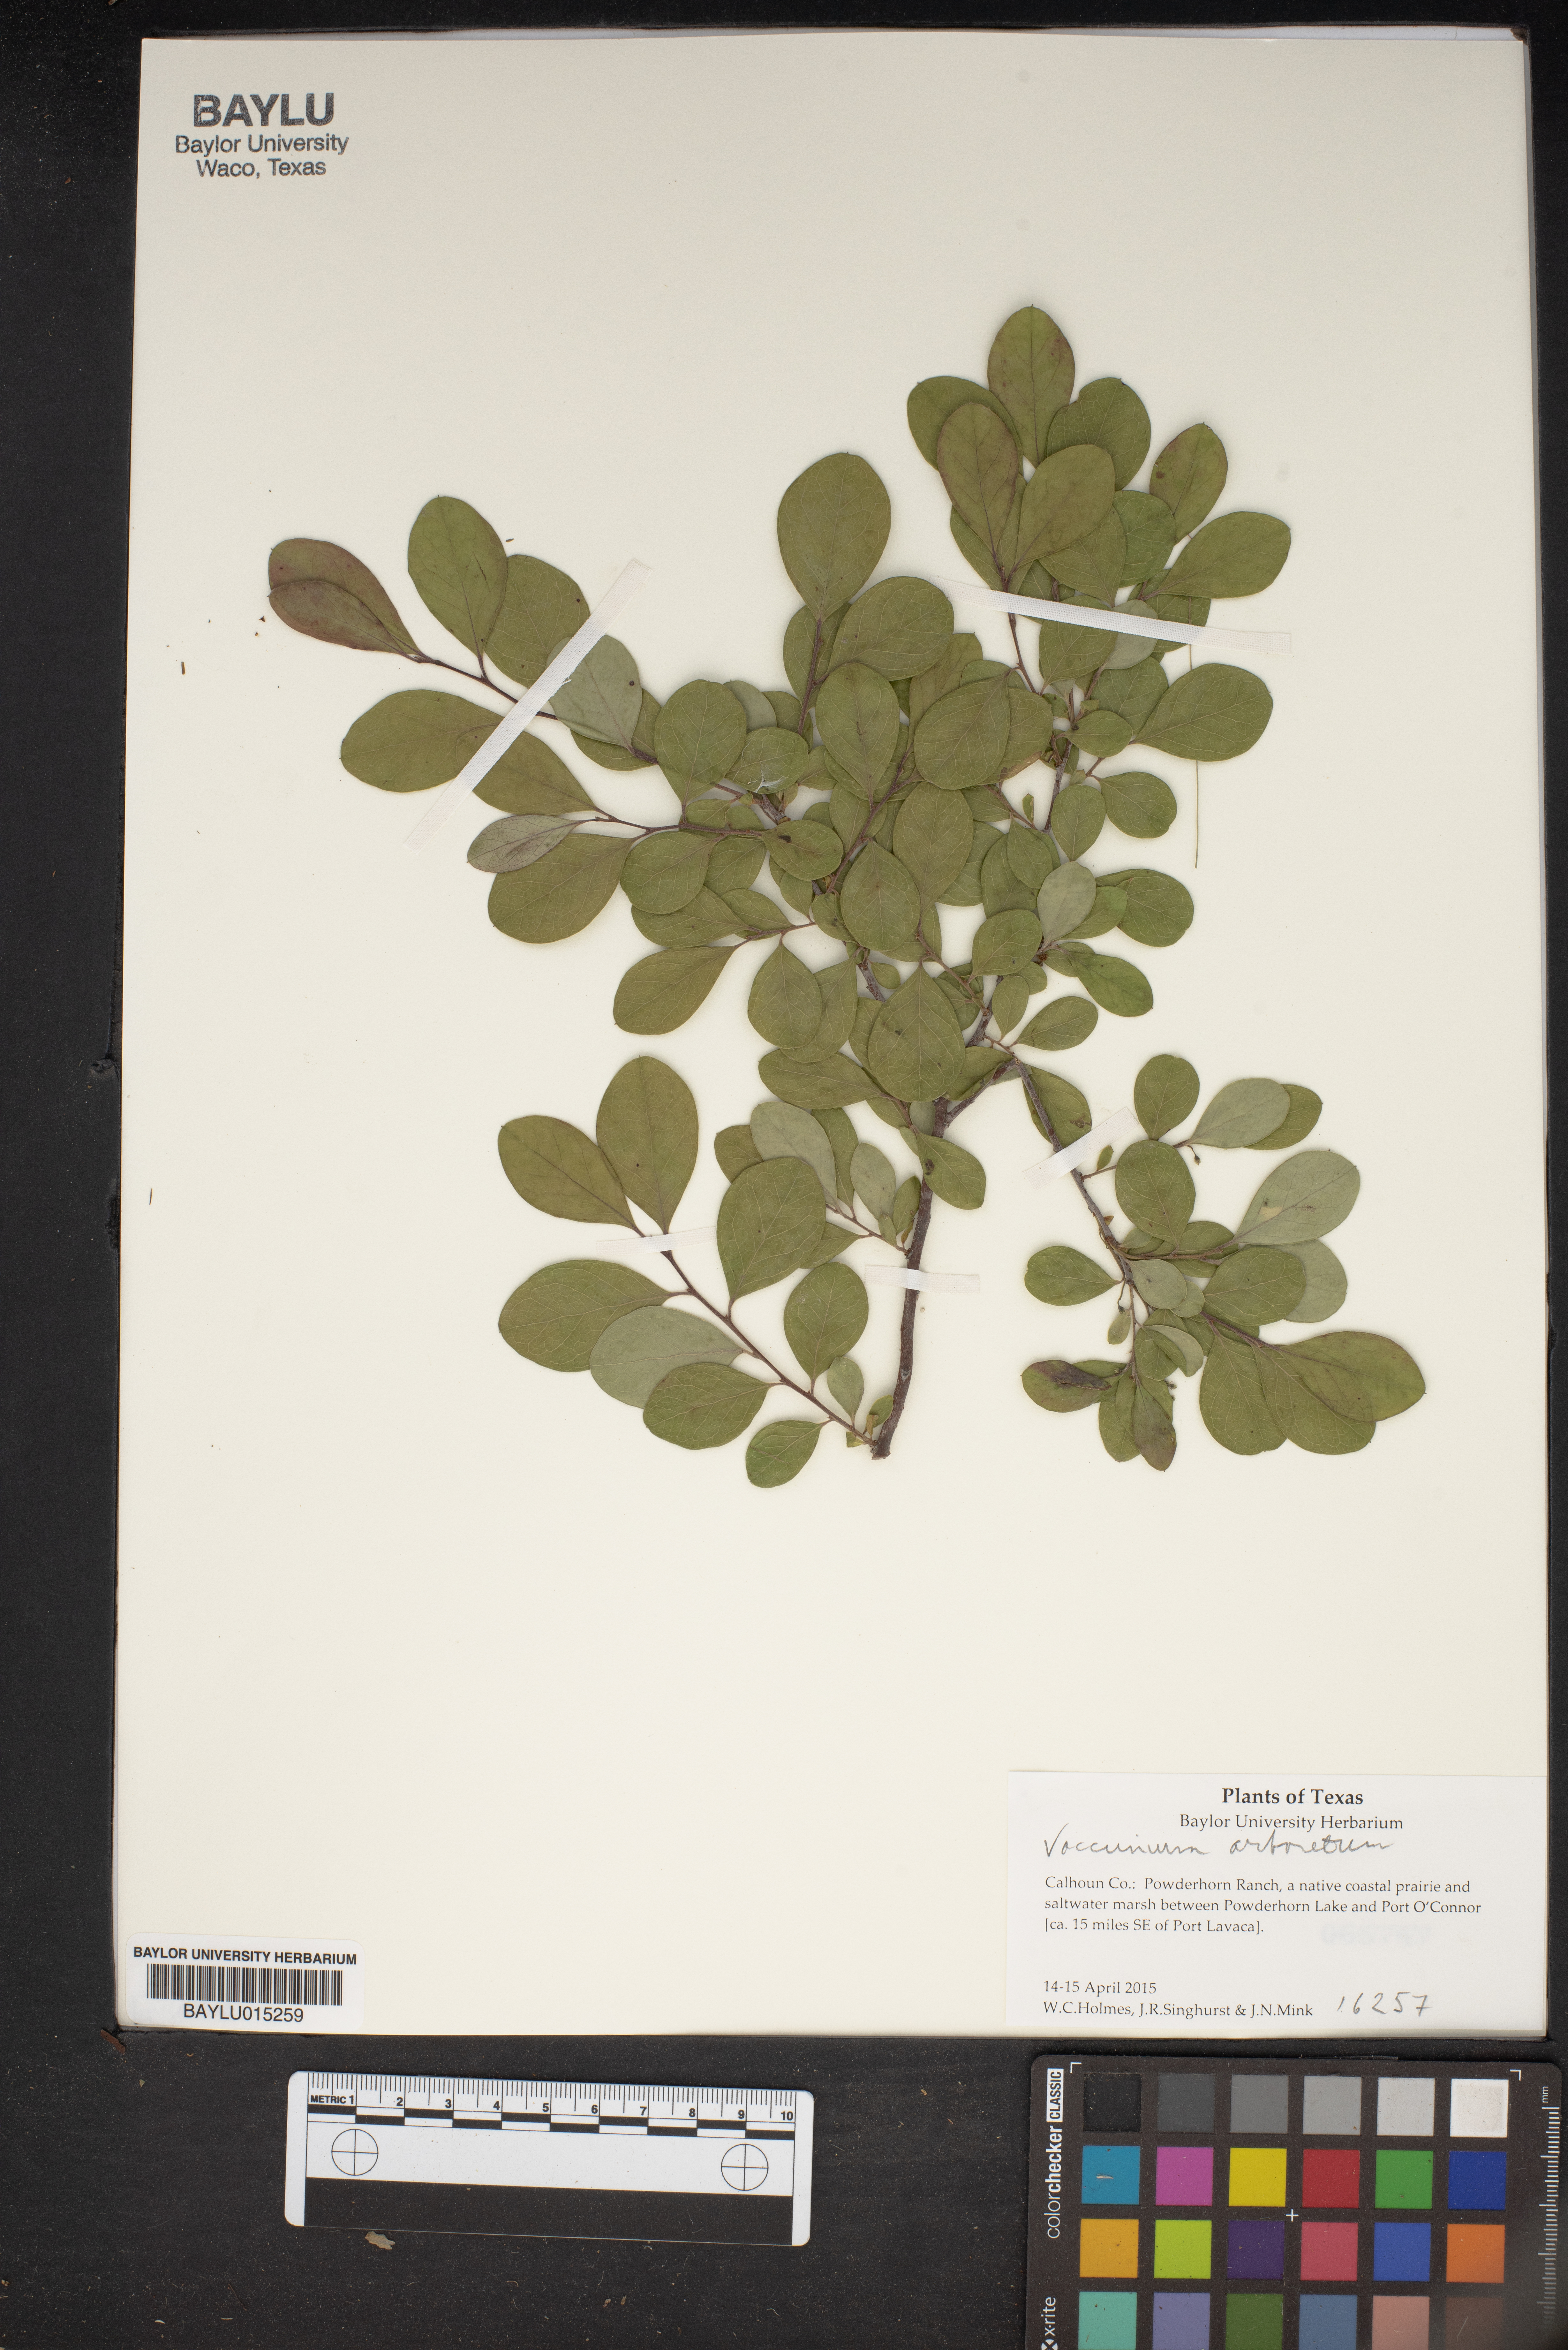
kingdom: Plantae
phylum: Tracheophyta
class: Magnoliopsida
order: Ericales
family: Ericaceae
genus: Vaccinium
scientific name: Vaccinium arboreum
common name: Farkleberry
